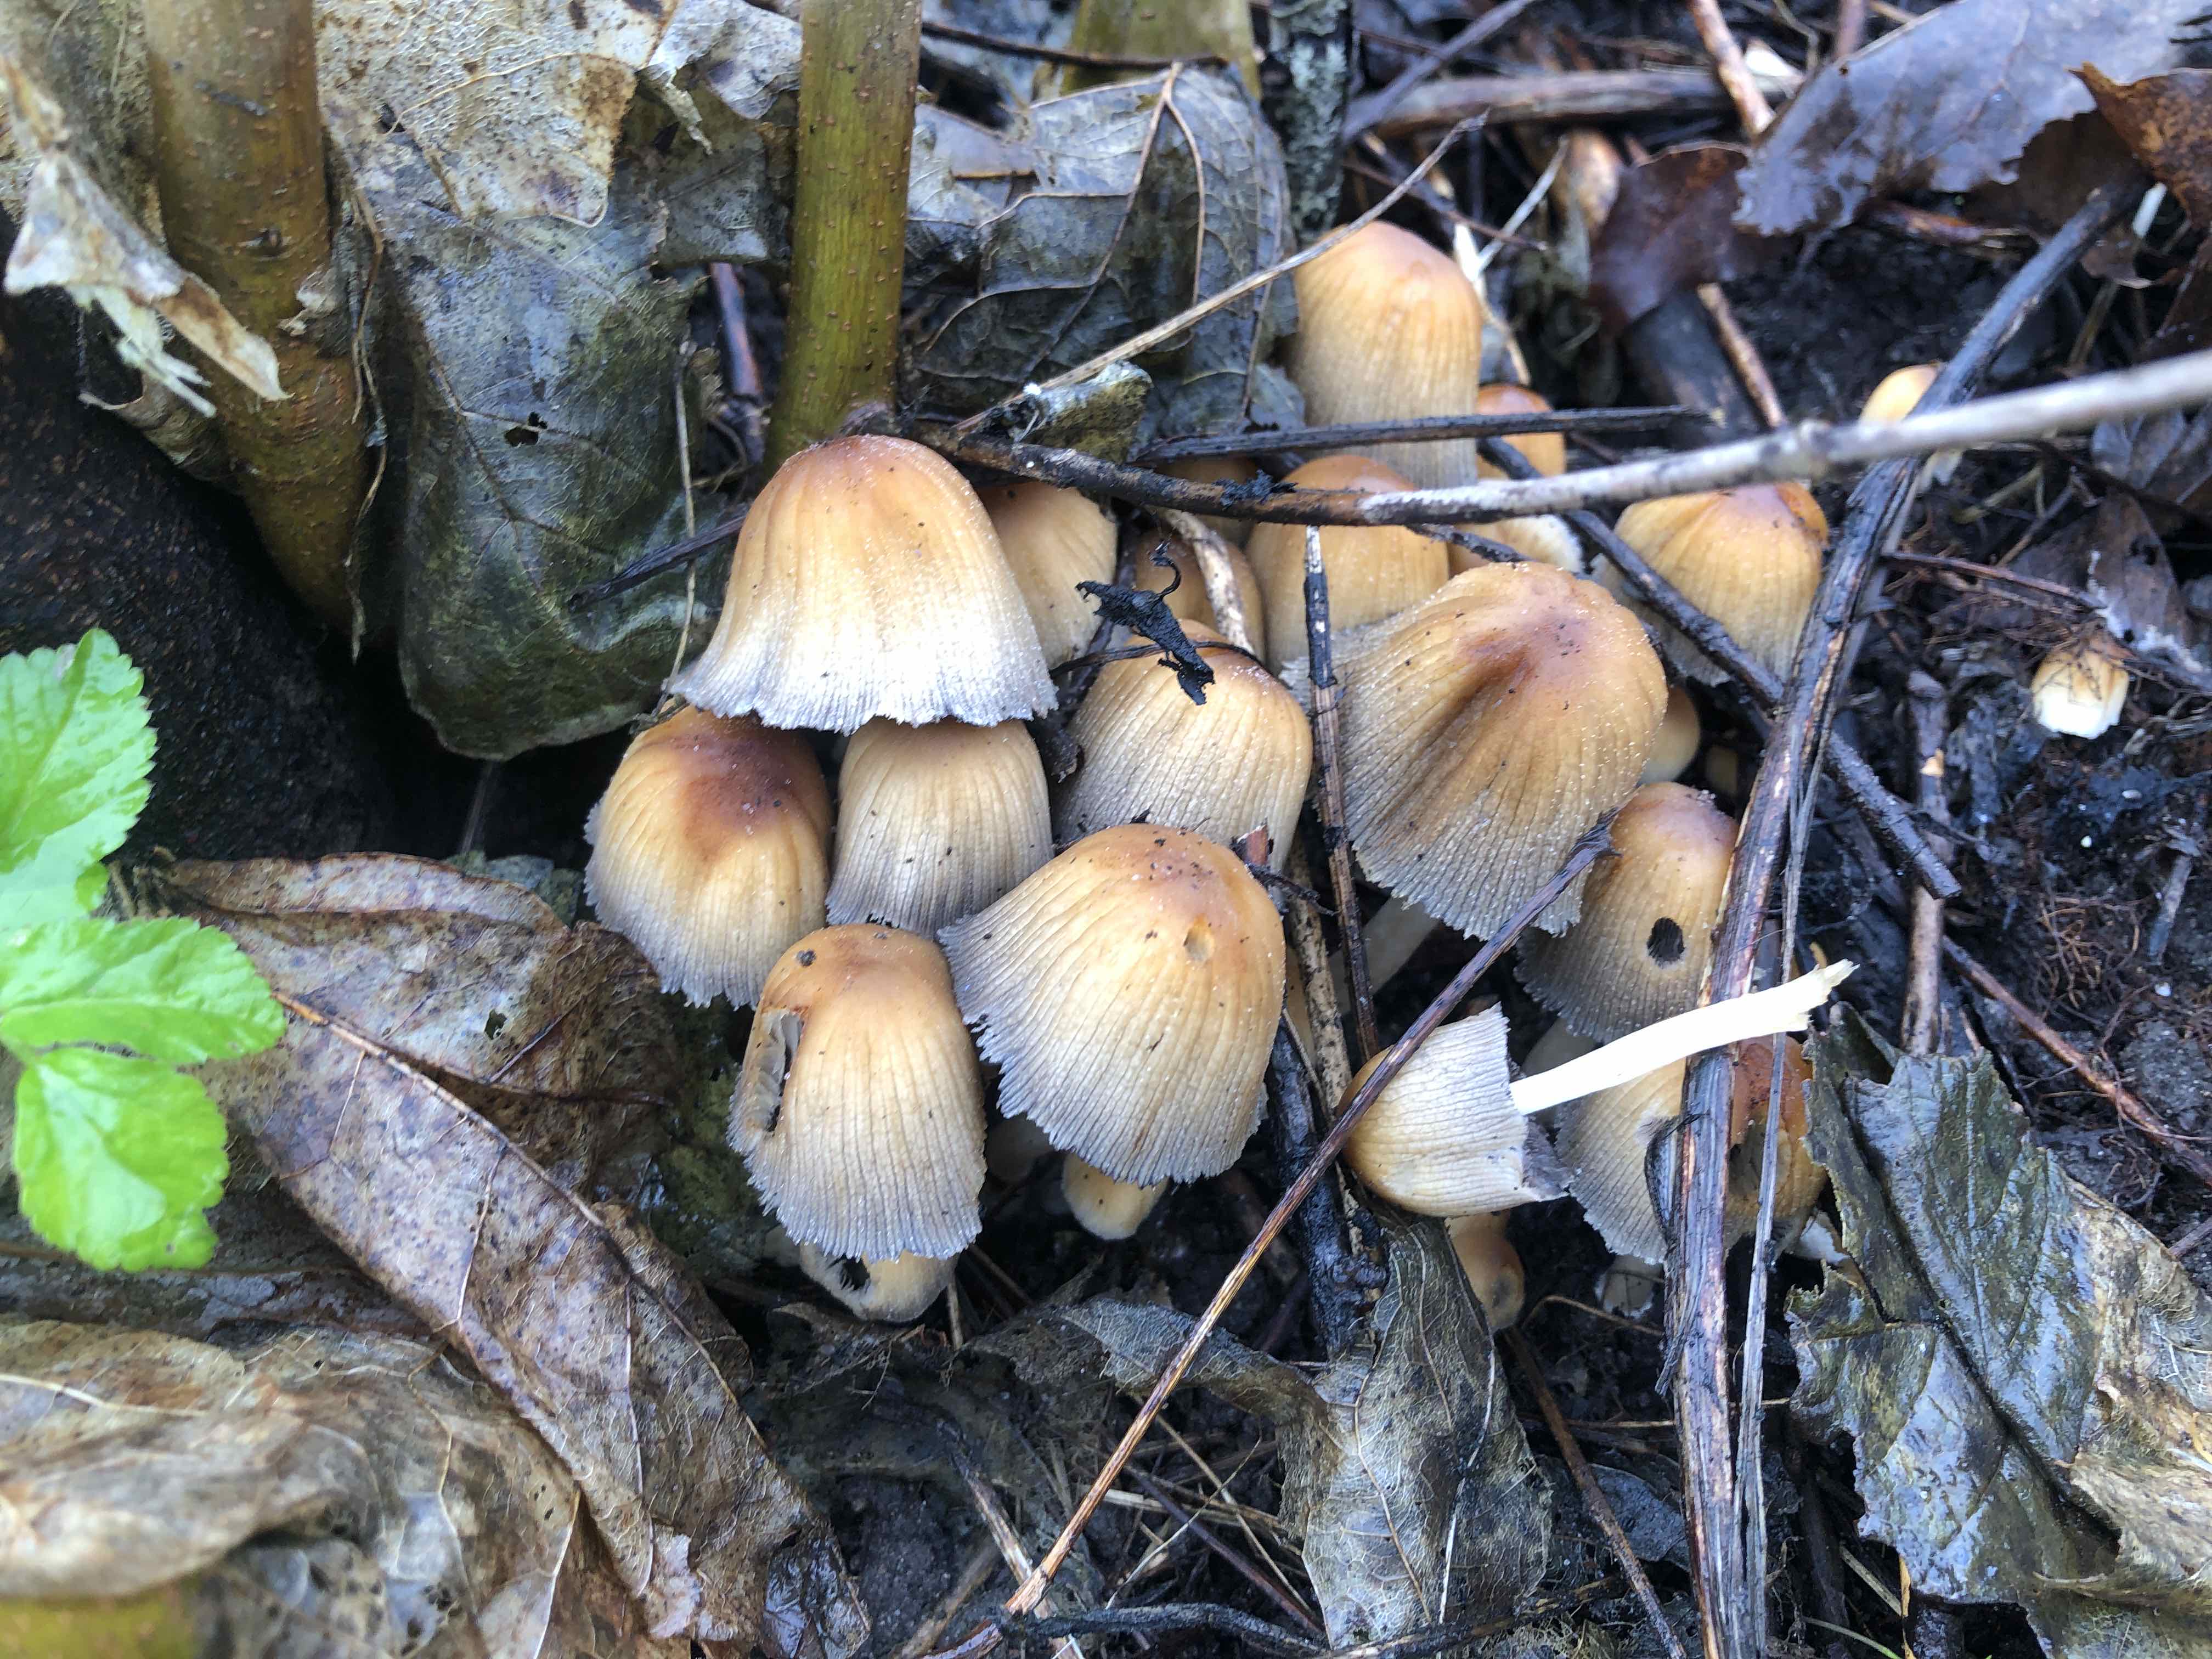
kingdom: Fungi
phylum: Basidiomycota
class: Agaricomycetes
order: Agaricales
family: Psathyrellaceae
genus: Coprinellus
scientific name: Coprinellus micaceus
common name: glimmer-blækhat
